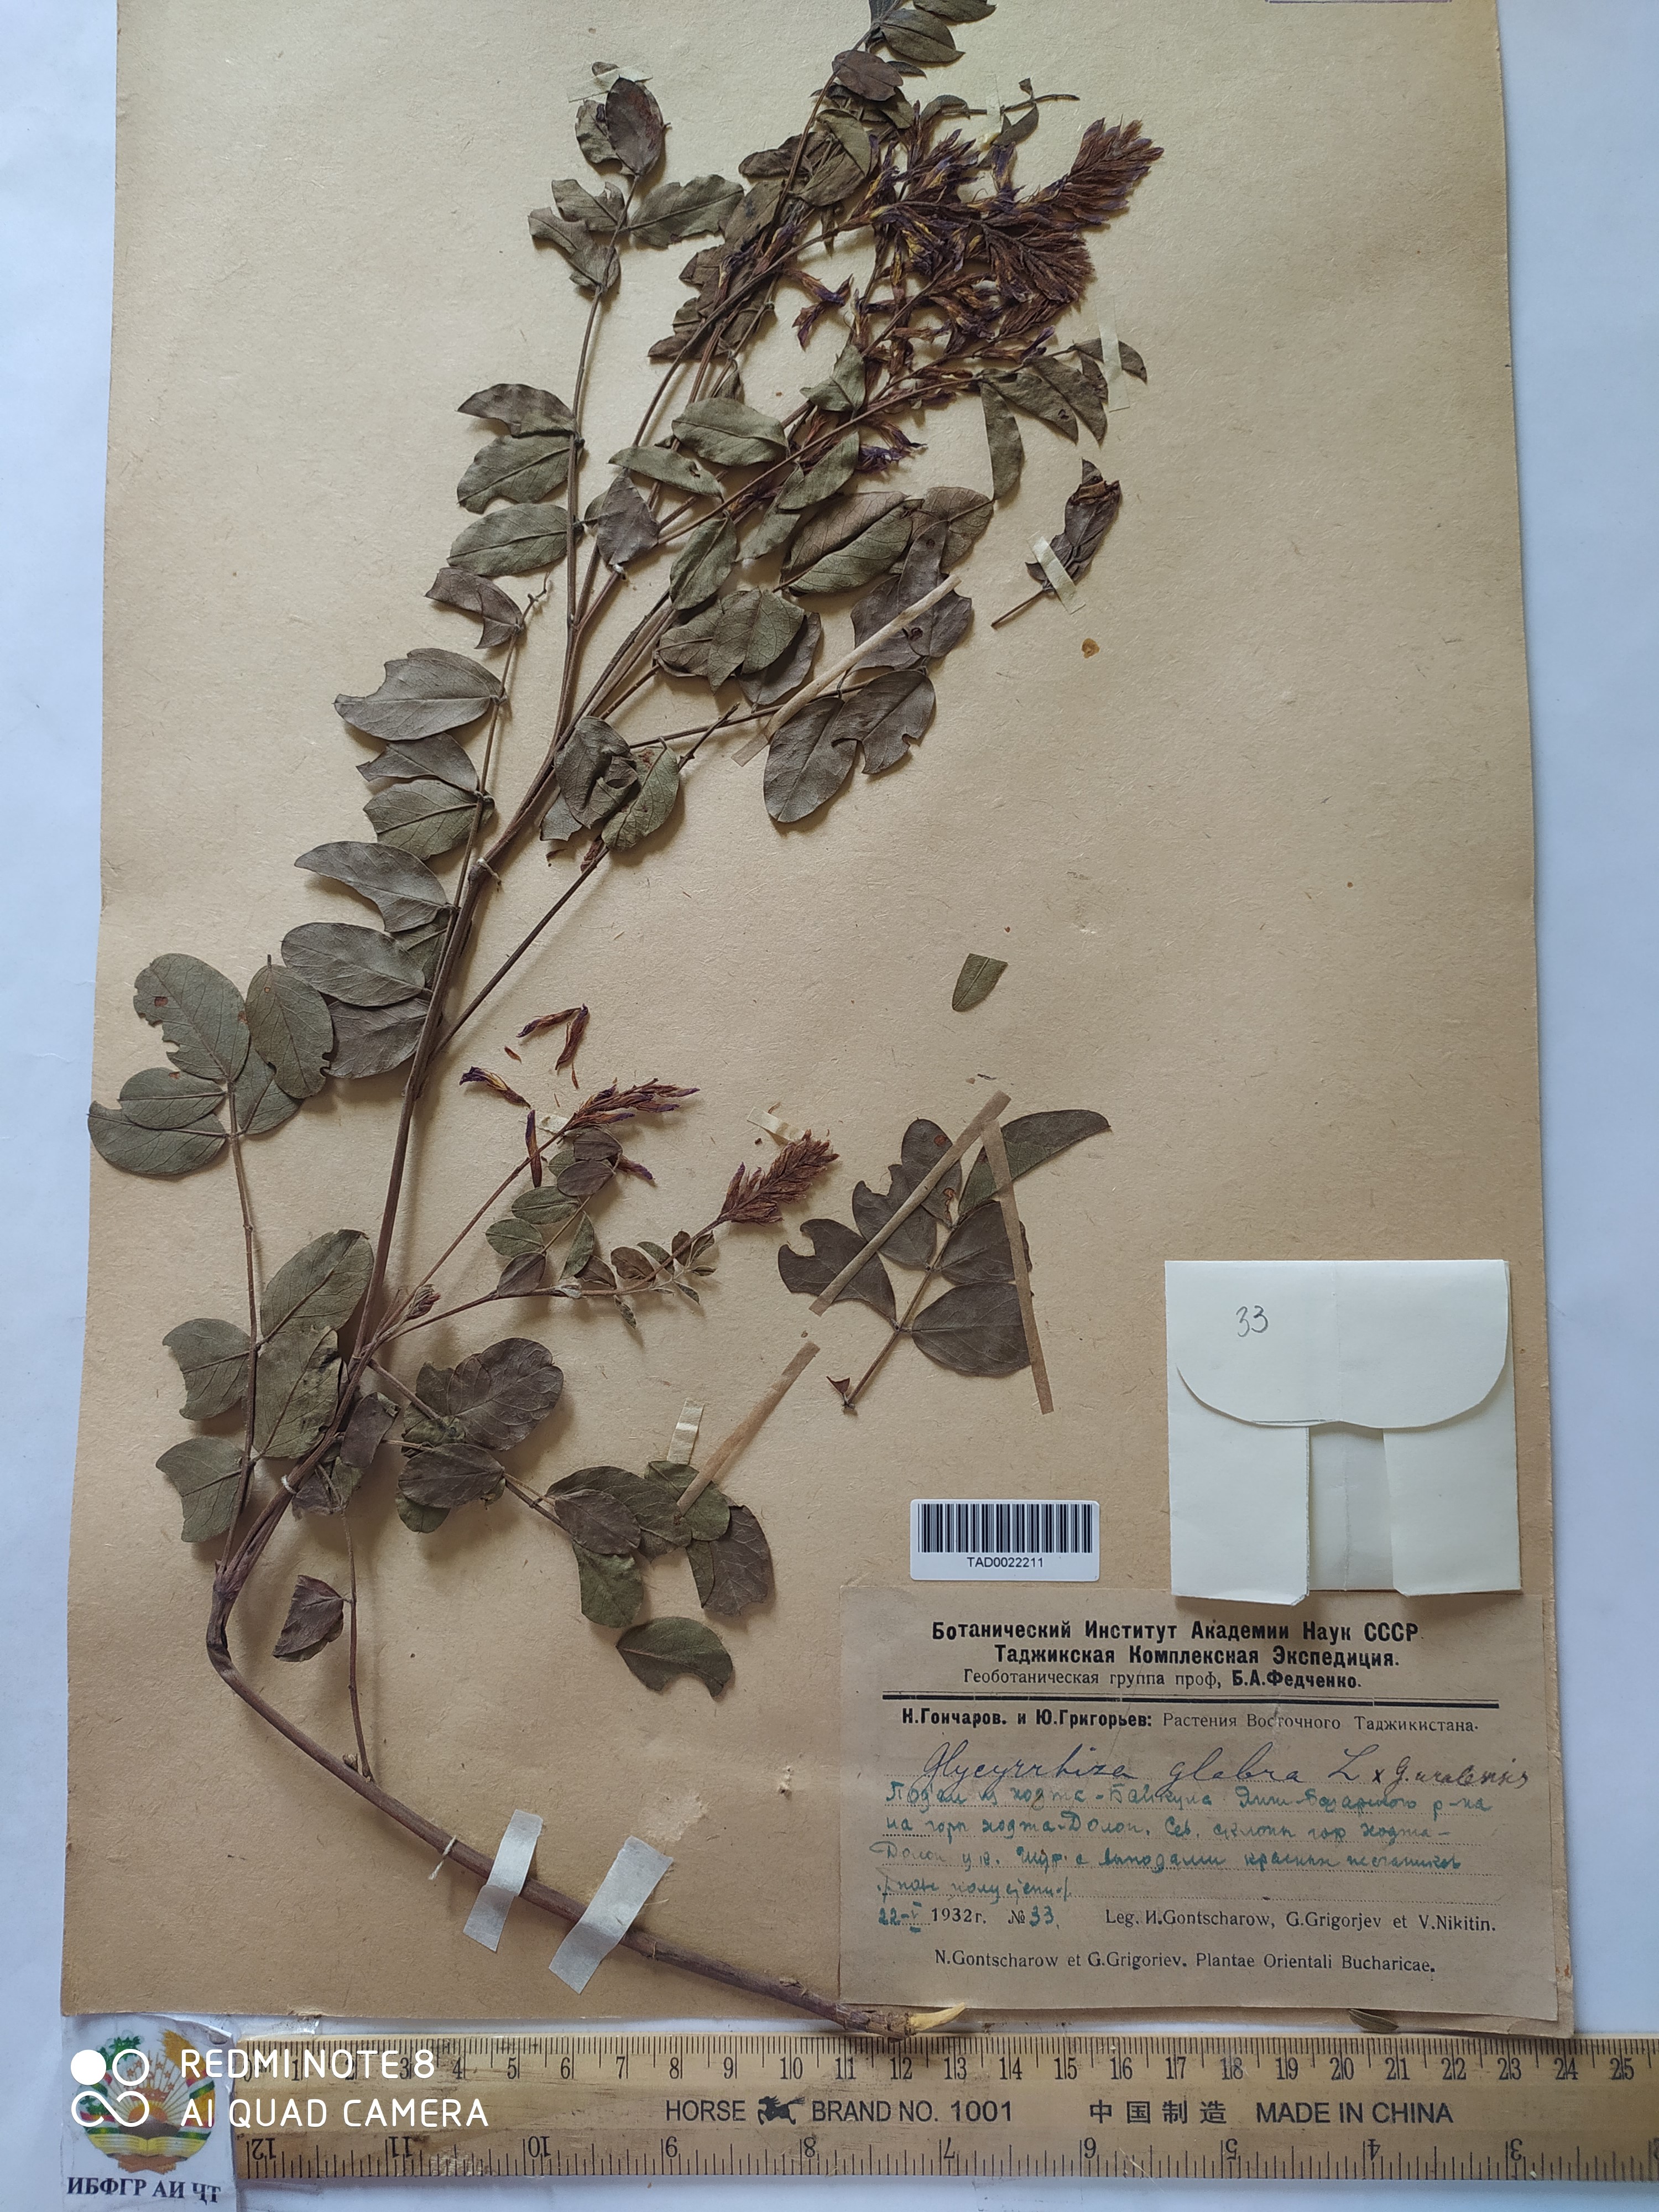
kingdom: Plantae
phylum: Tracheophyta
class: Magnoliopsida
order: Fabales
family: Fabaceae
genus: Glycyrrhiza
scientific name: Glycyrrhiza glabra
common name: Liquorice
